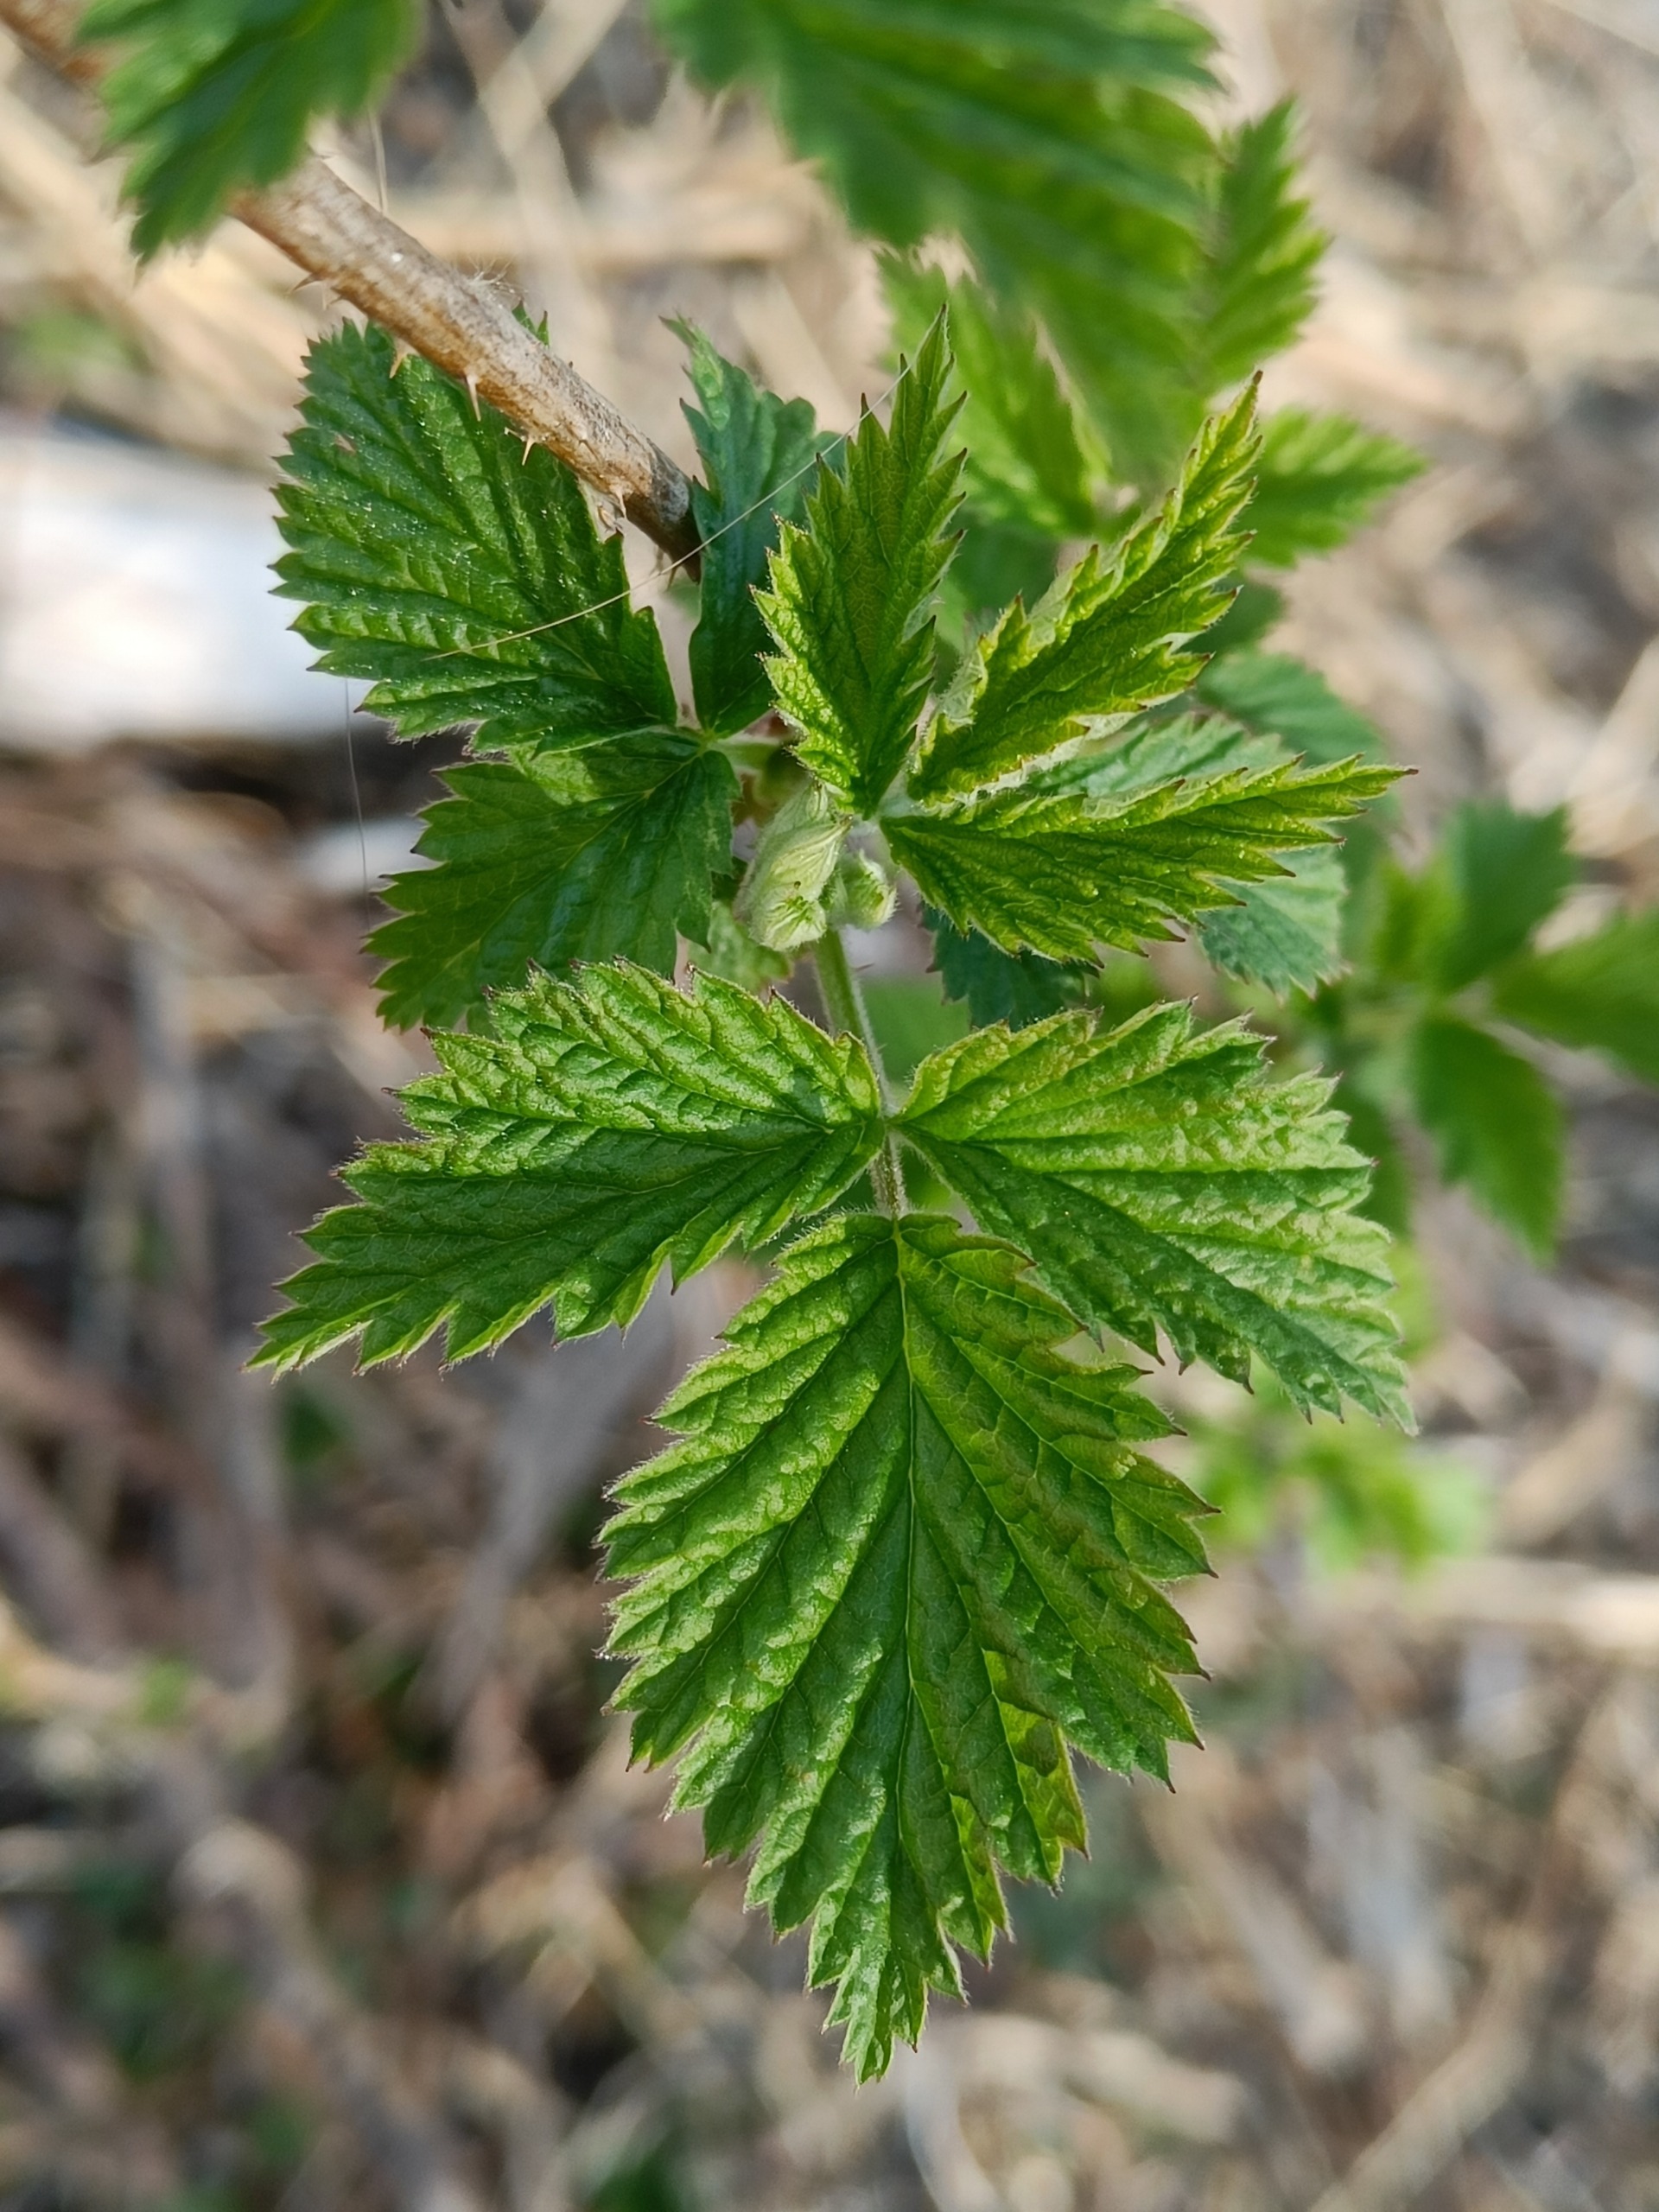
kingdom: Plantae
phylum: Tracheophyta
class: Magnoliopsida
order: Rosales
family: Rosaceae
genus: Rubus
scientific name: Rubus idaeus
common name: Hindbær
